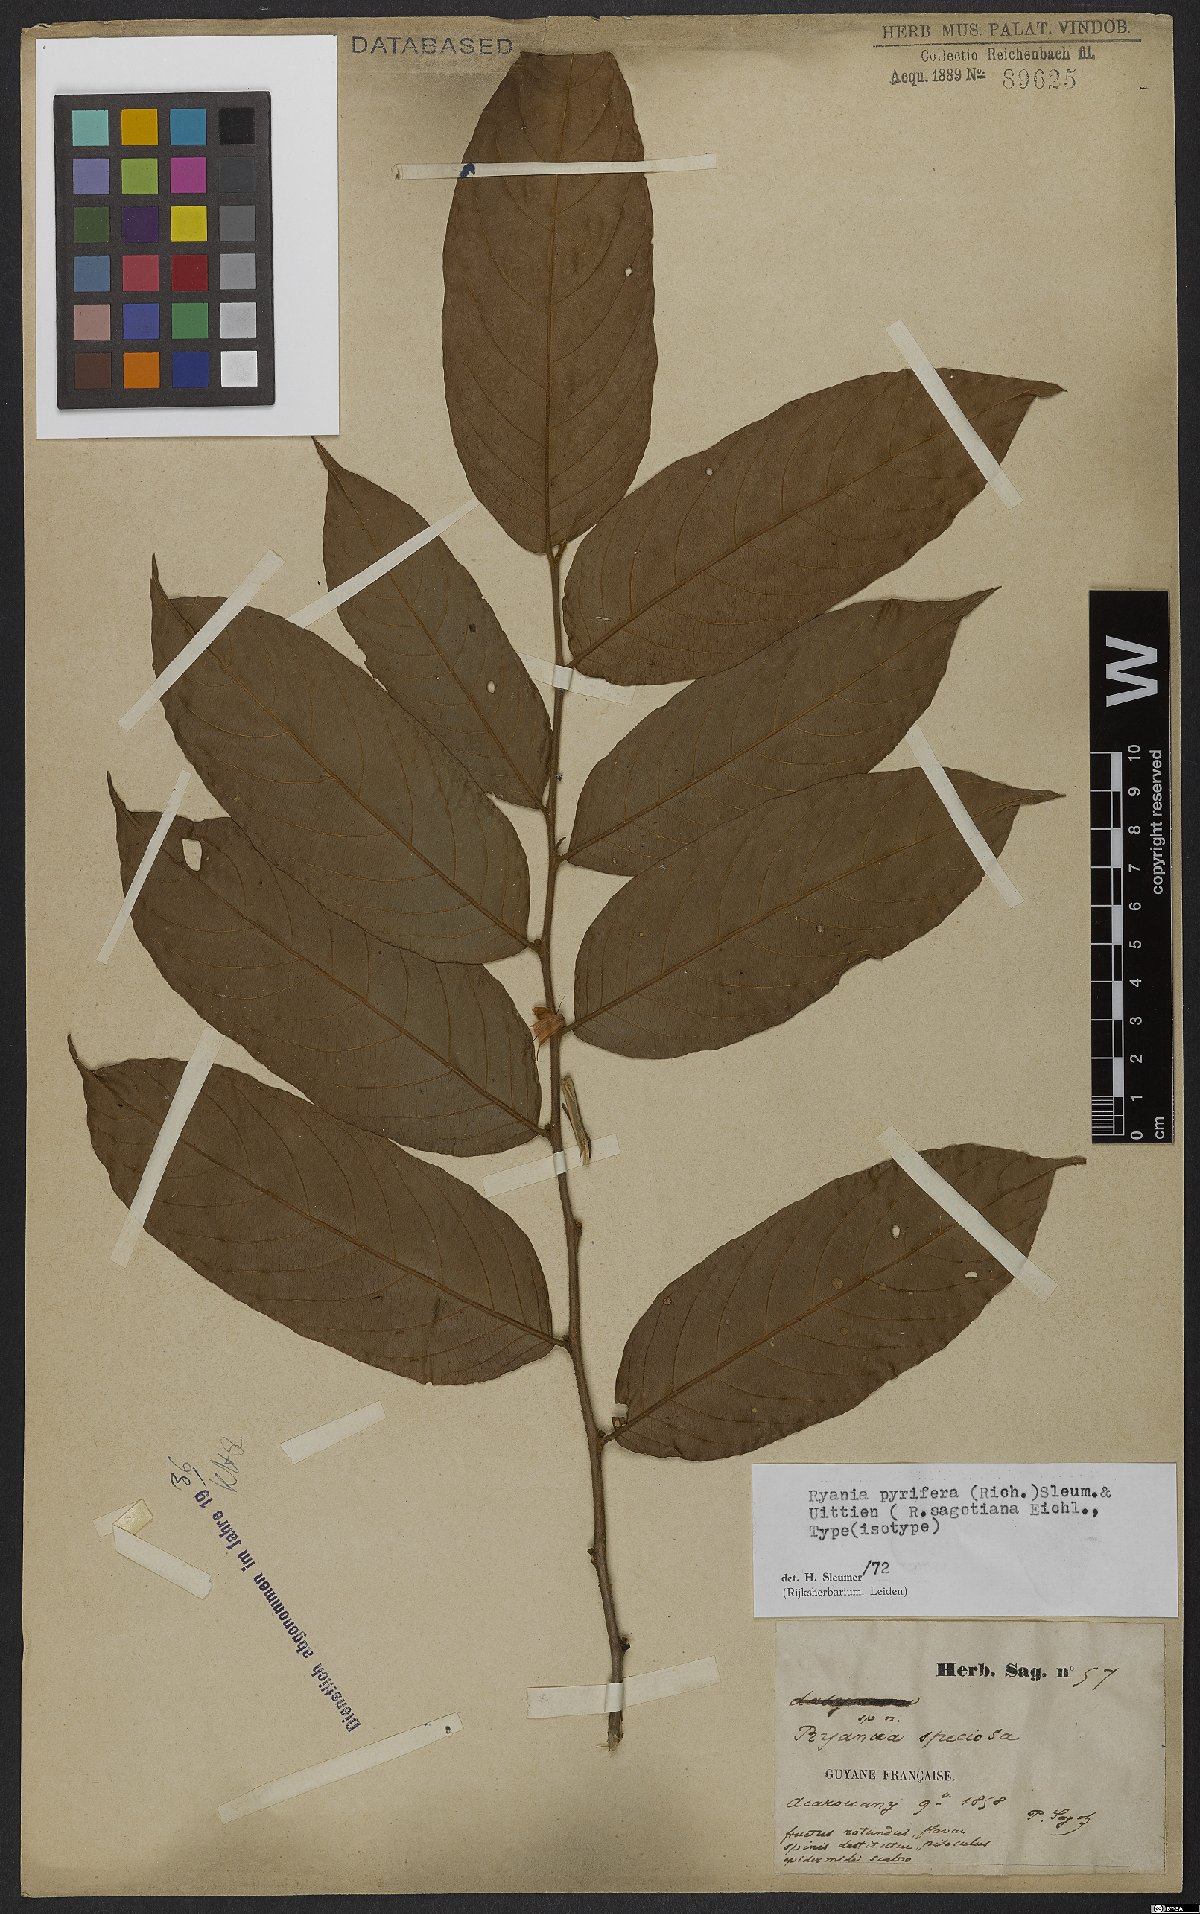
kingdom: Plantae
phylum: Tracheophyta
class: Magnoliopsida
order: Malpighiales
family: Salicaceae
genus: Ryania
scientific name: Ryania pyrifera
